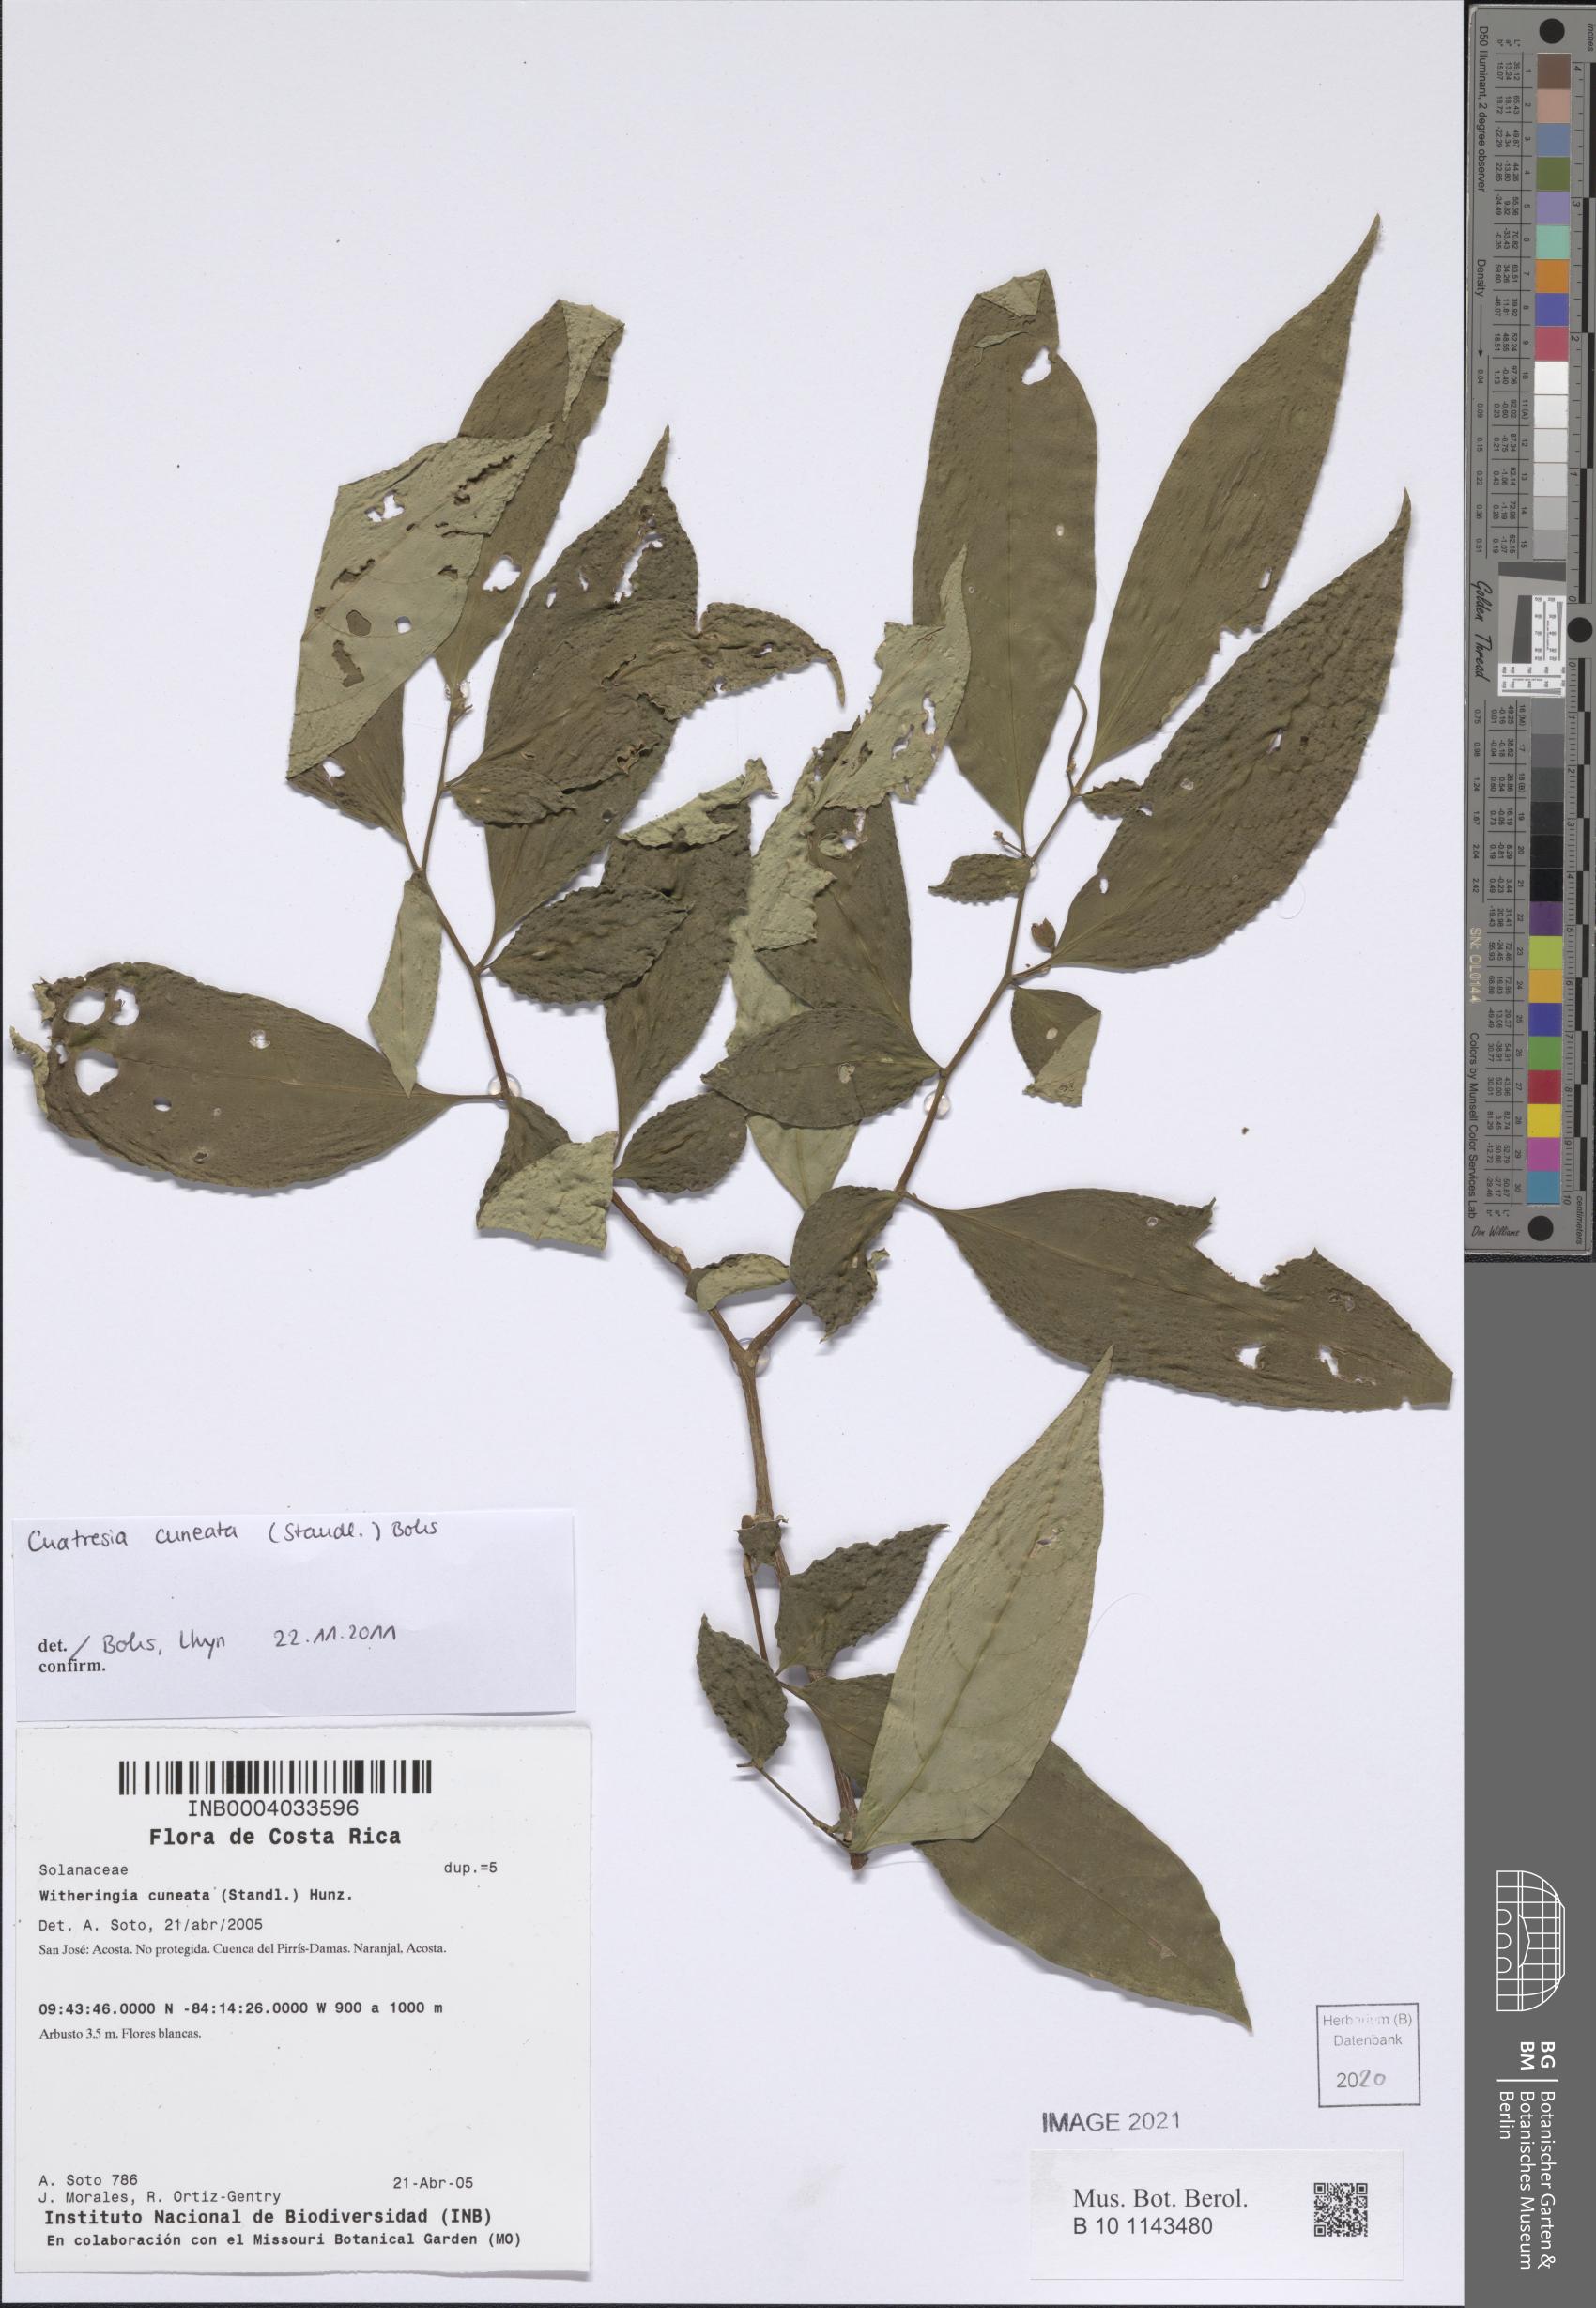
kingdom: Plantae
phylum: Tracheophyta
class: Magnoliopsida
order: Solanales
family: Solanaceae
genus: Cuatresia
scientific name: Cuatresia cuneata
